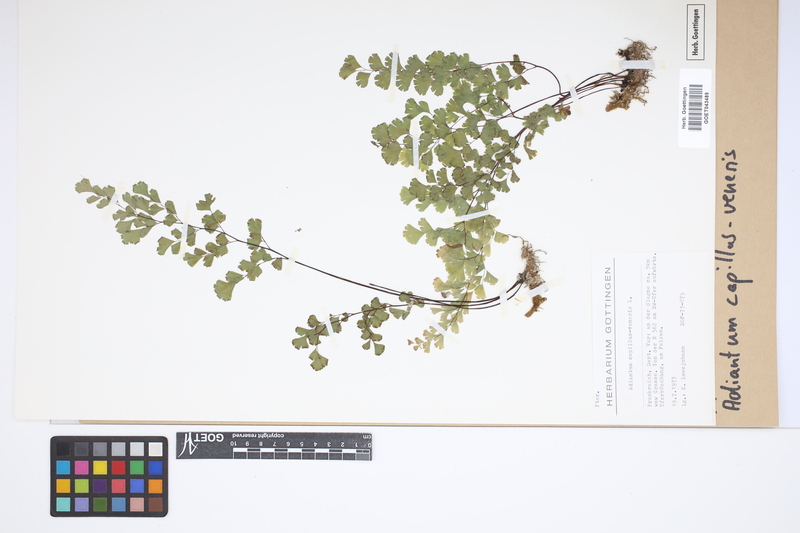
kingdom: Plantae
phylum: Tracheophyta
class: Polypodiopsida
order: Polypodiales
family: Pteridaceae
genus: Adiantum
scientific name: Adiantum capillus-veneris
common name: Maidenhair fern
